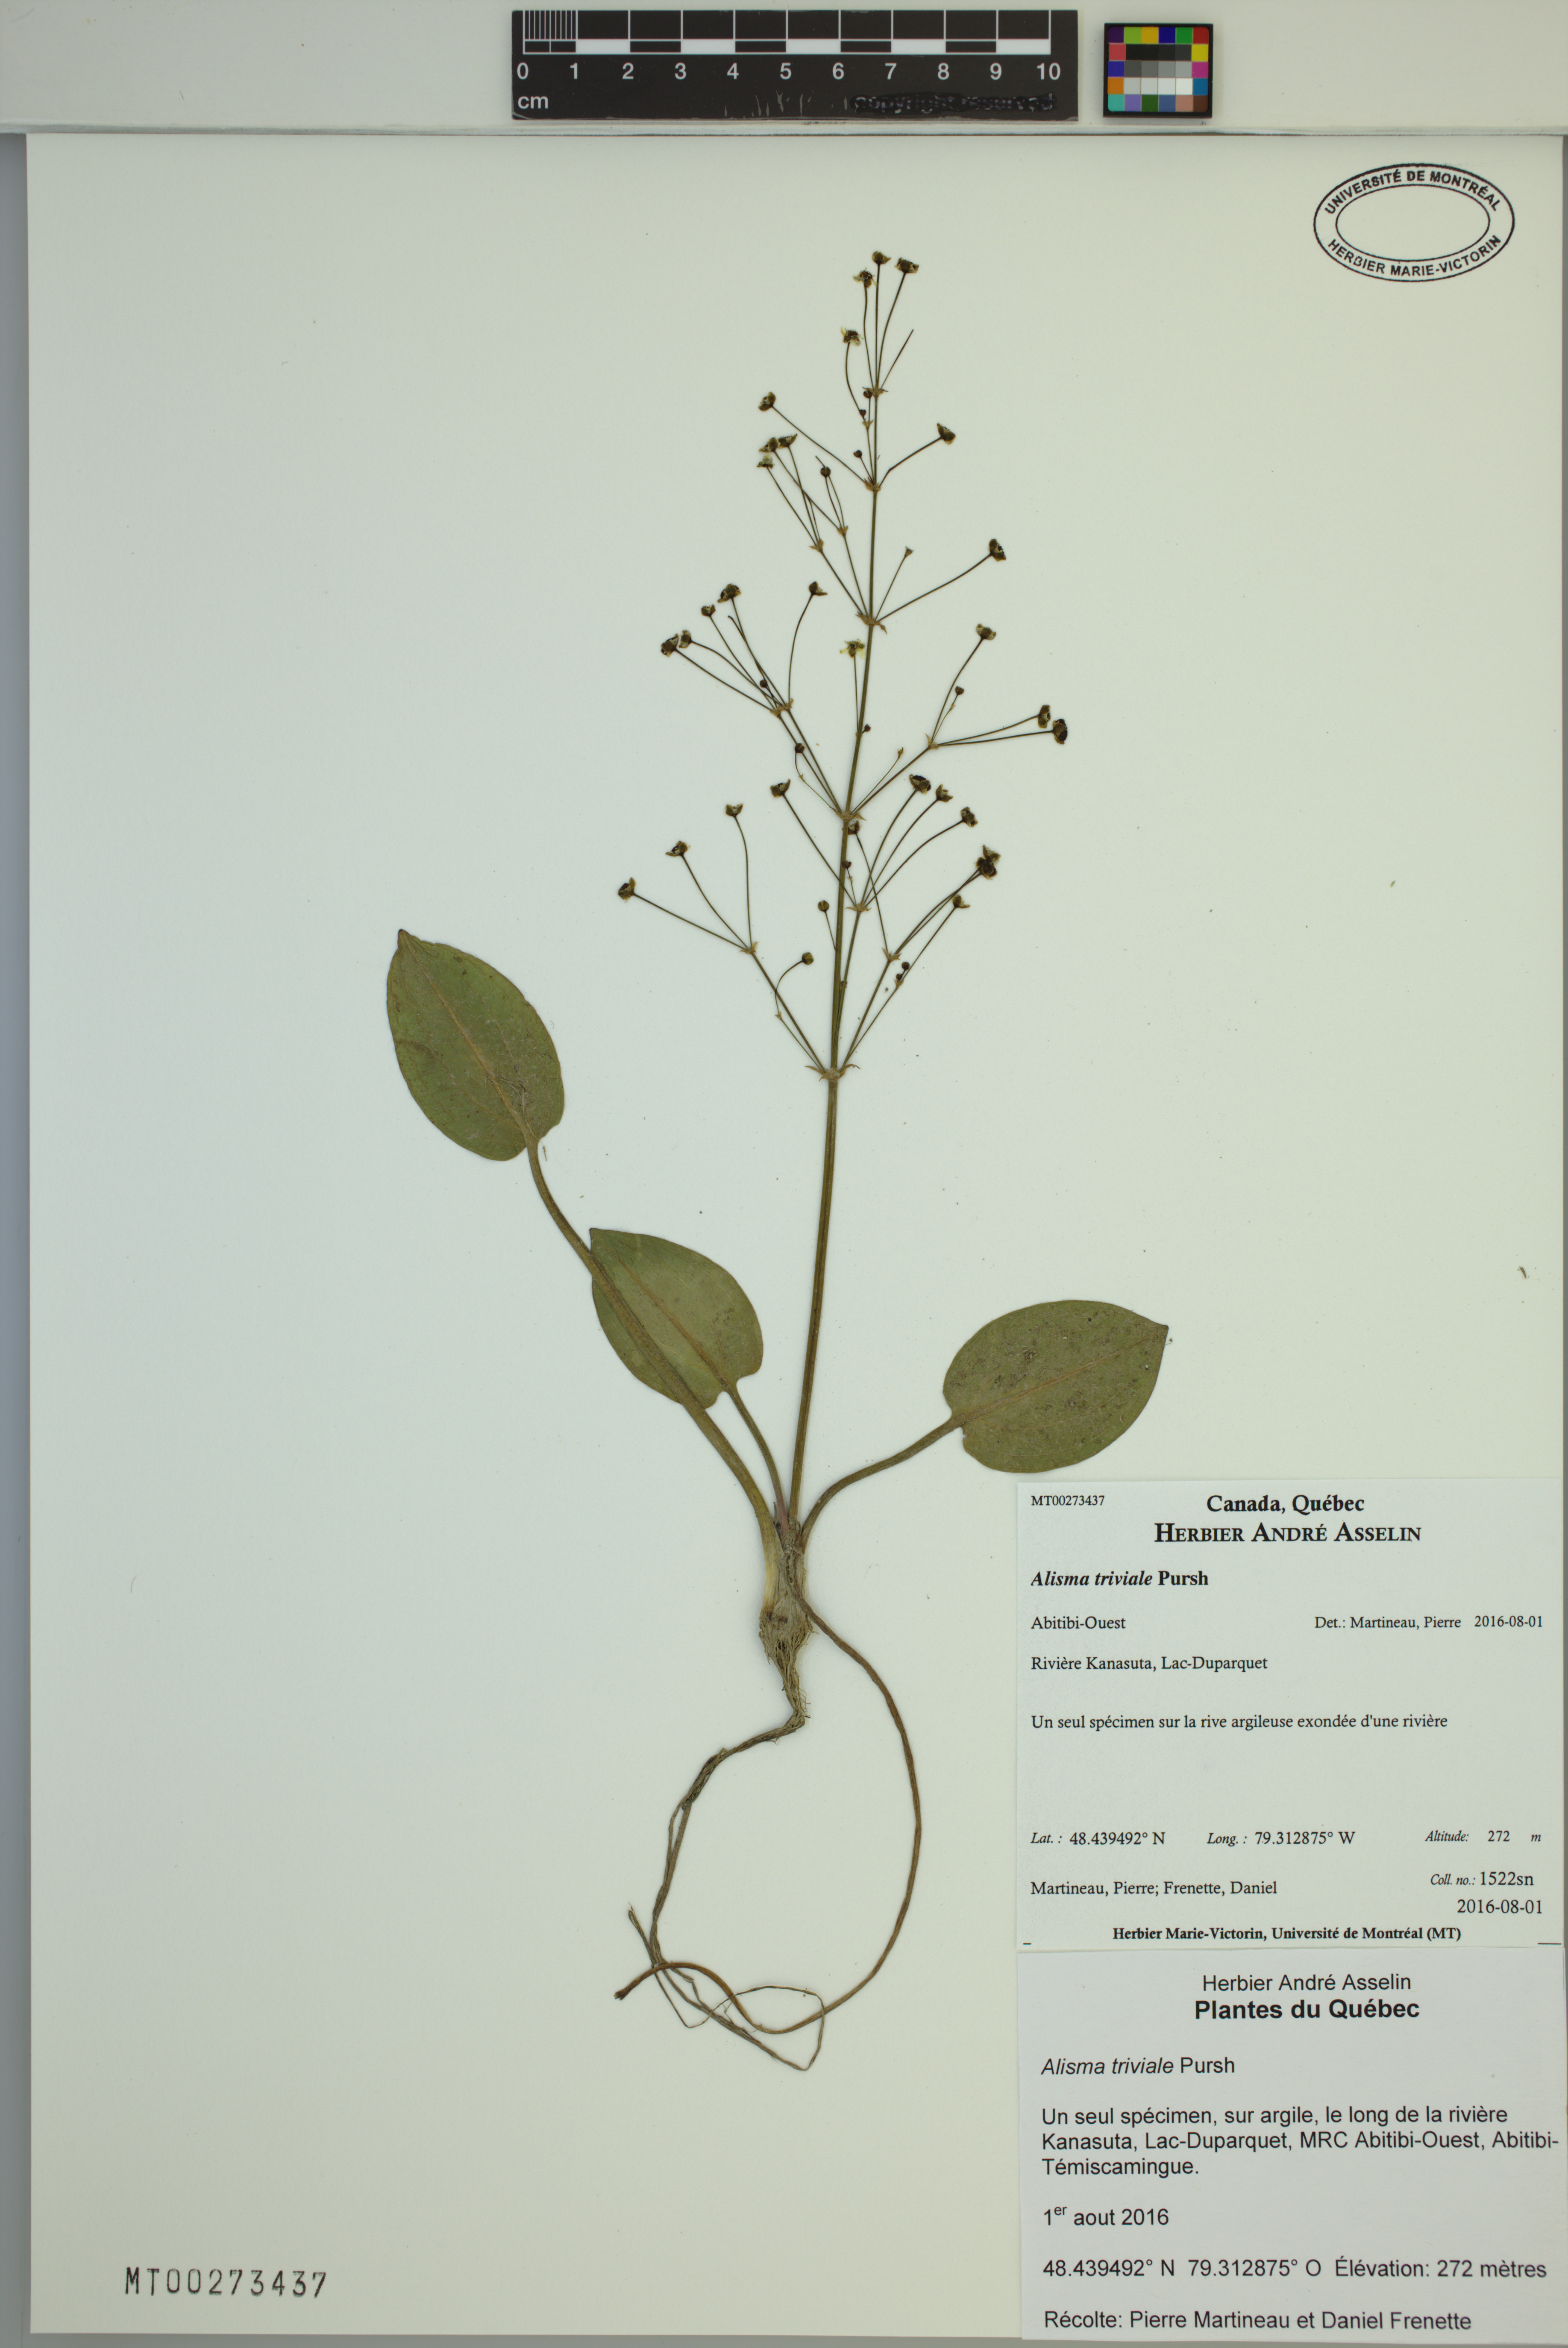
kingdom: Plantae
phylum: Tracheophyta
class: Liliopsida
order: Alismatales
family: Alismataceae
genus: Alisma
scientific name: Alisma triviale
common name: Northern water-plantain
